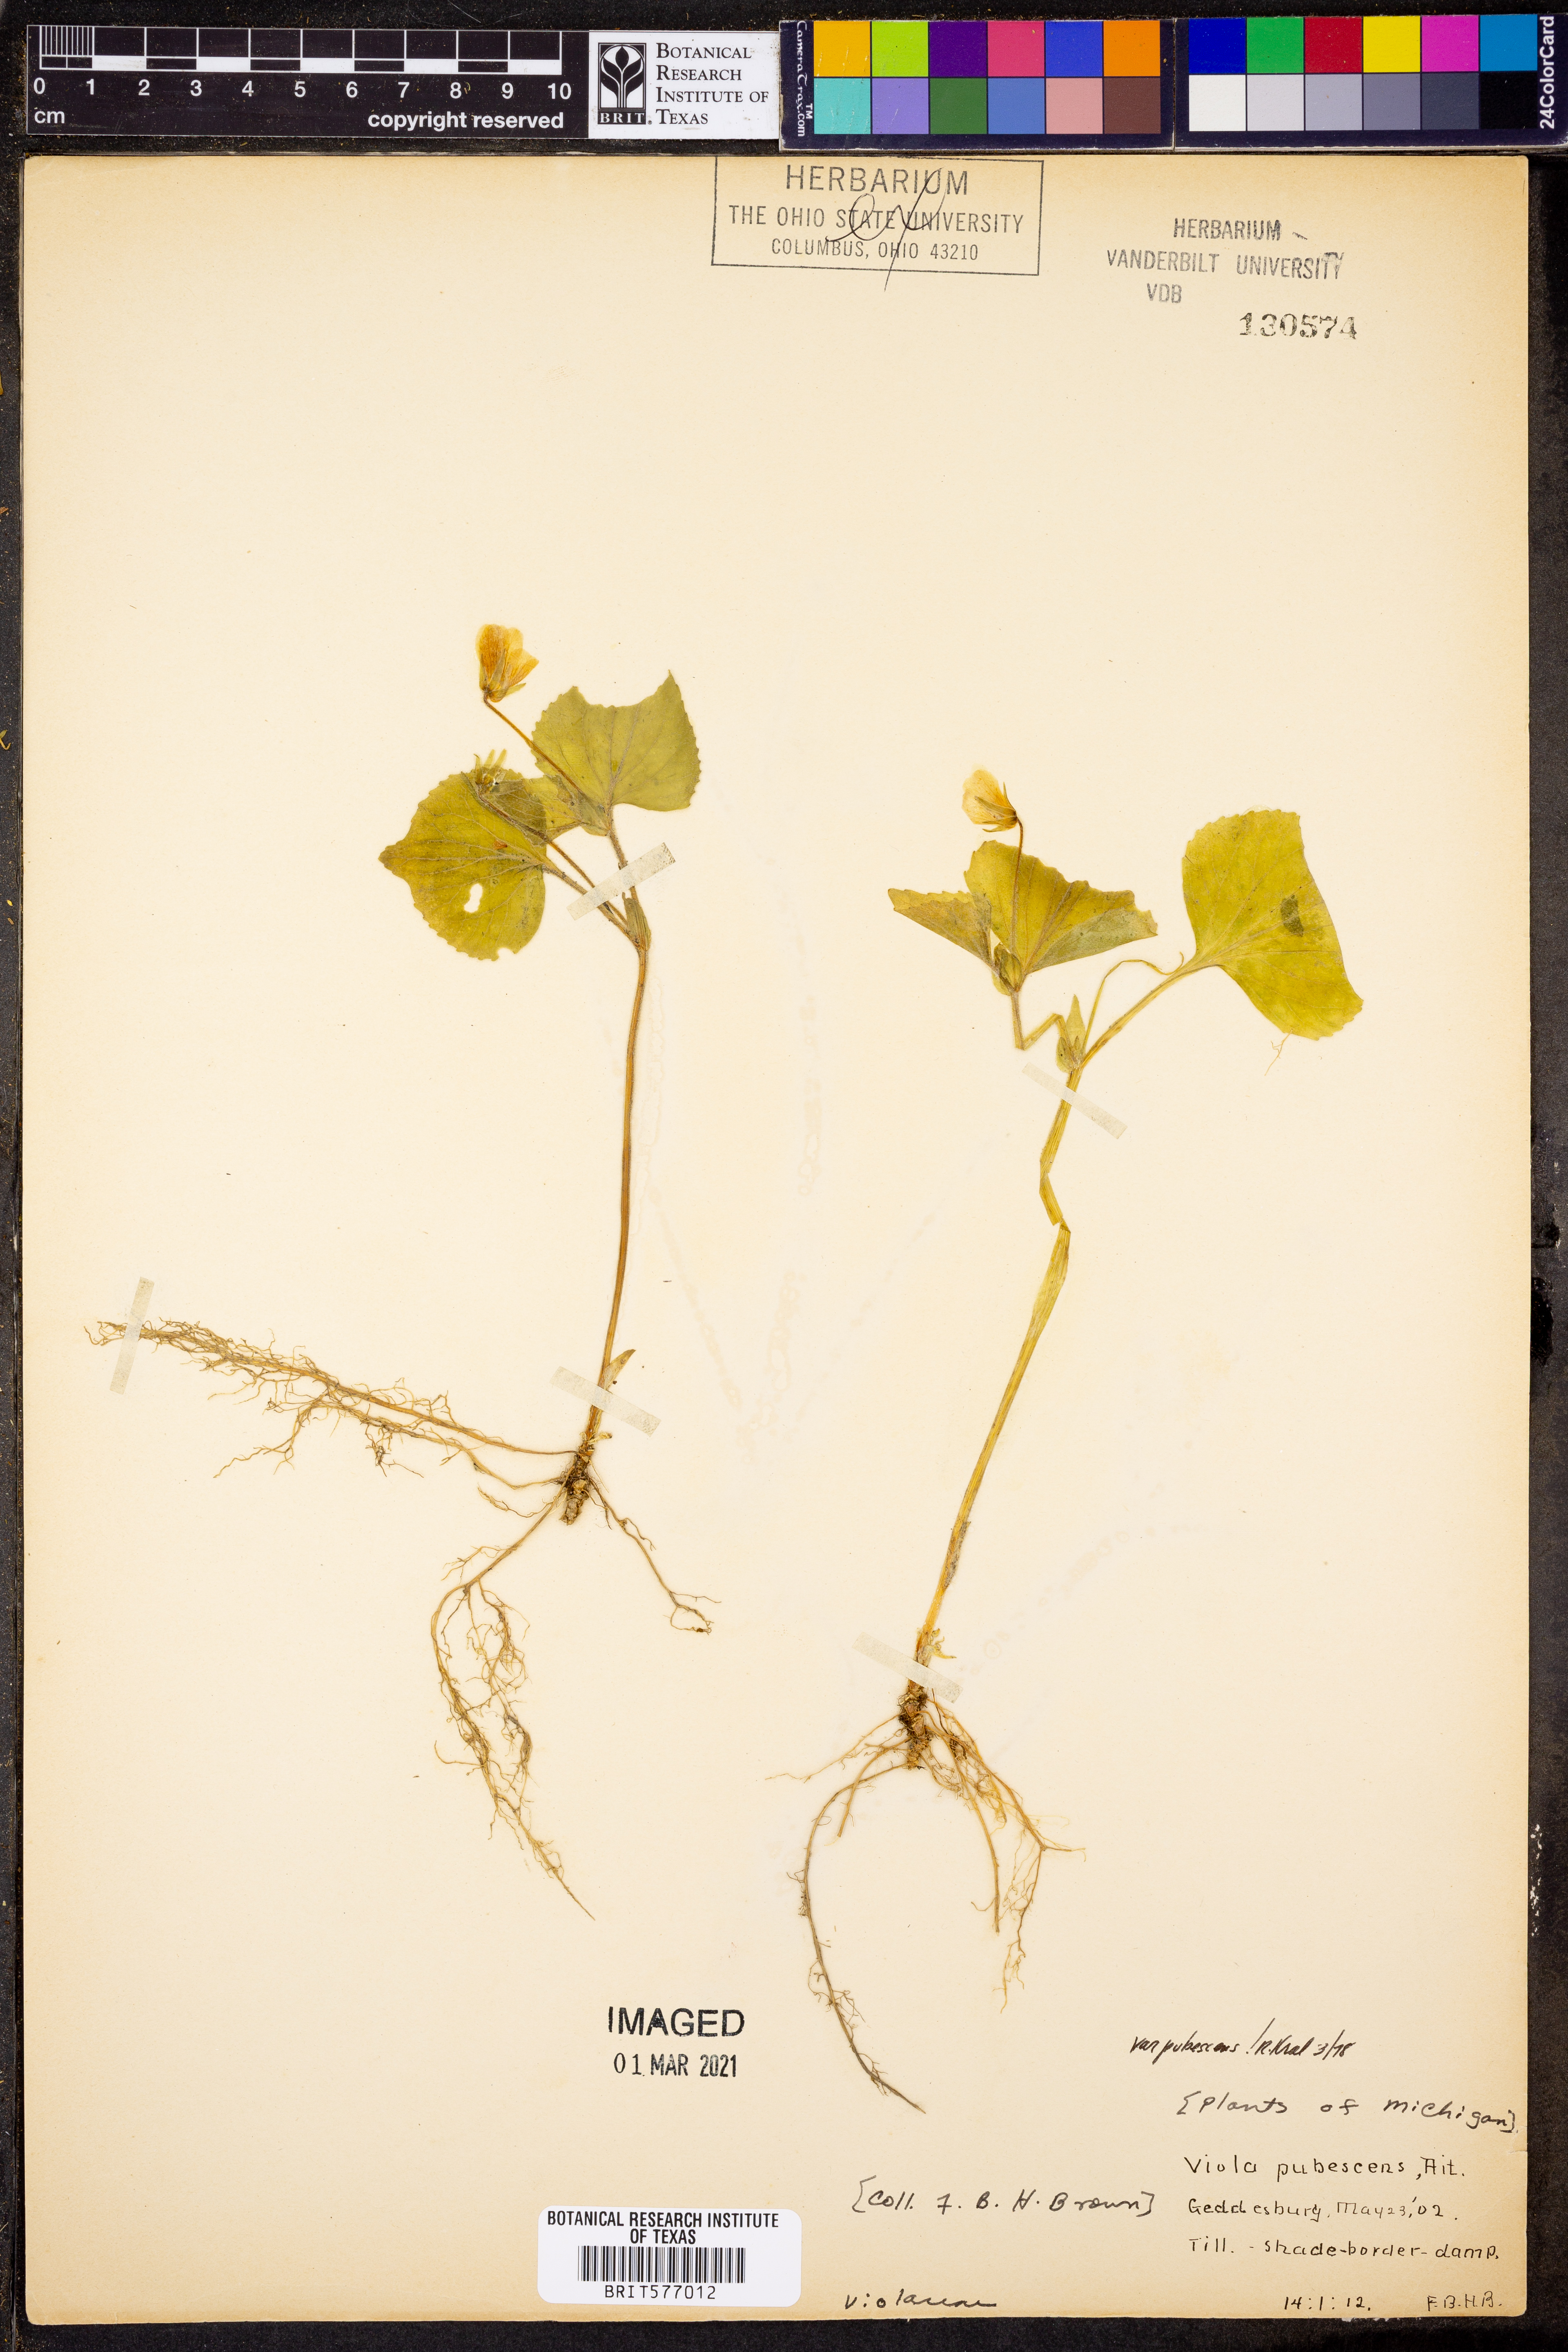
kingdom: Plantae
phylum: Tracheophyta
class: Magnoliopsida
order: Malpighiales
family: Violaceae
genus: Viola
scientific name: Viola pubescens
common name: Yellow forest violet
